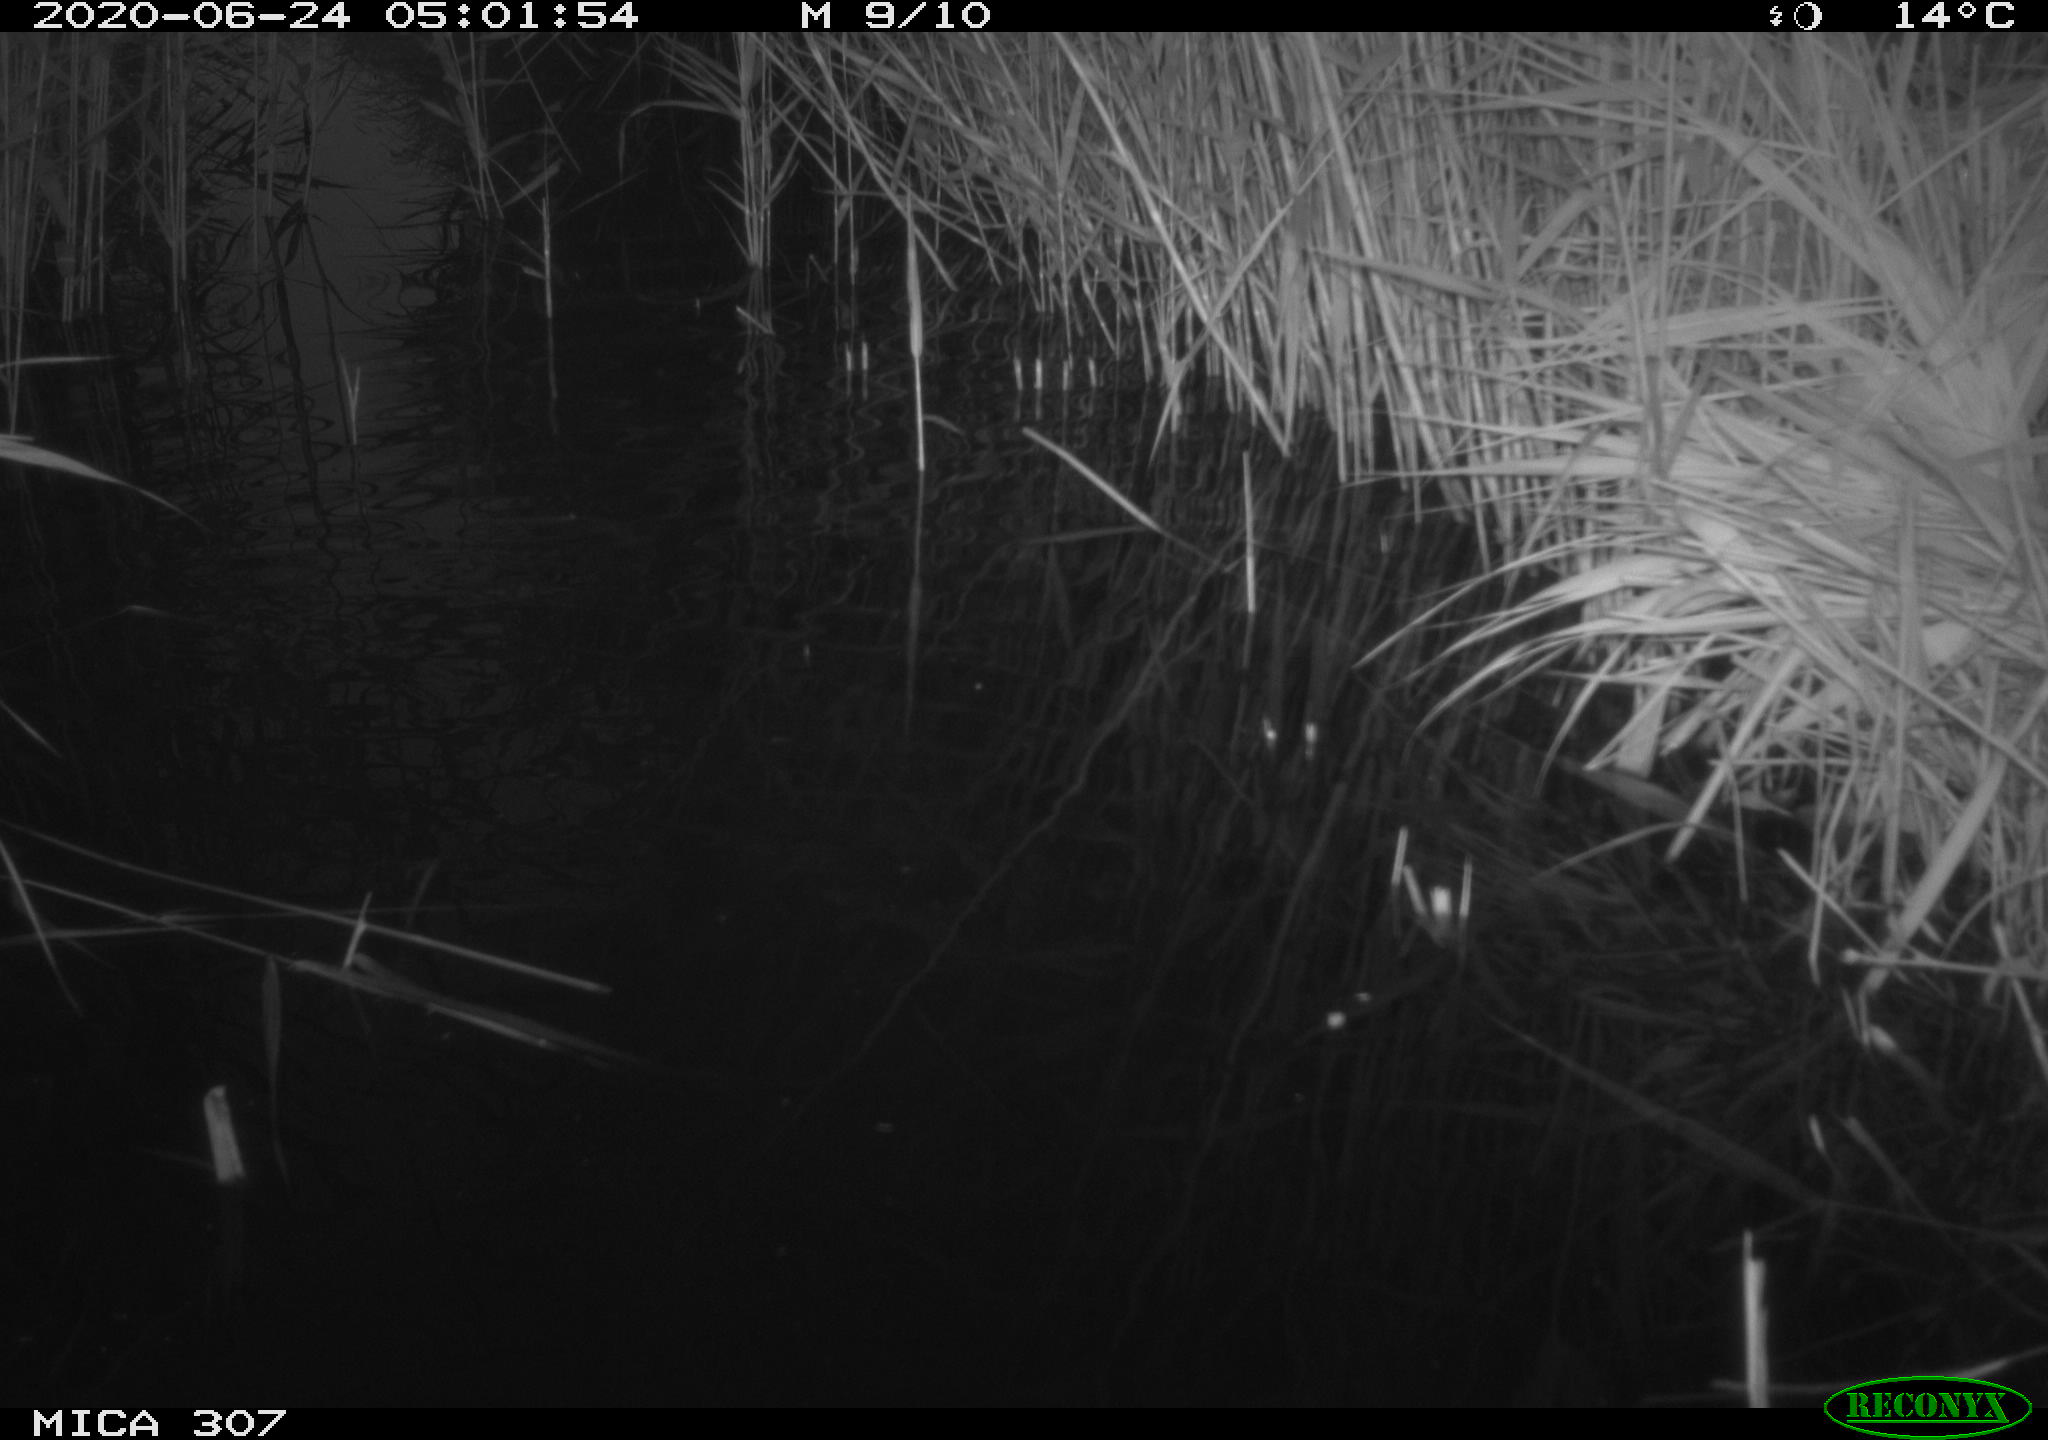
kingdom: Animalia
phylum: Chordata
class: Mammalia
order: Rodentia
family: Muridae
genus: Rattus
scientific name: Rattus norvegicus
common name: Brown rat
